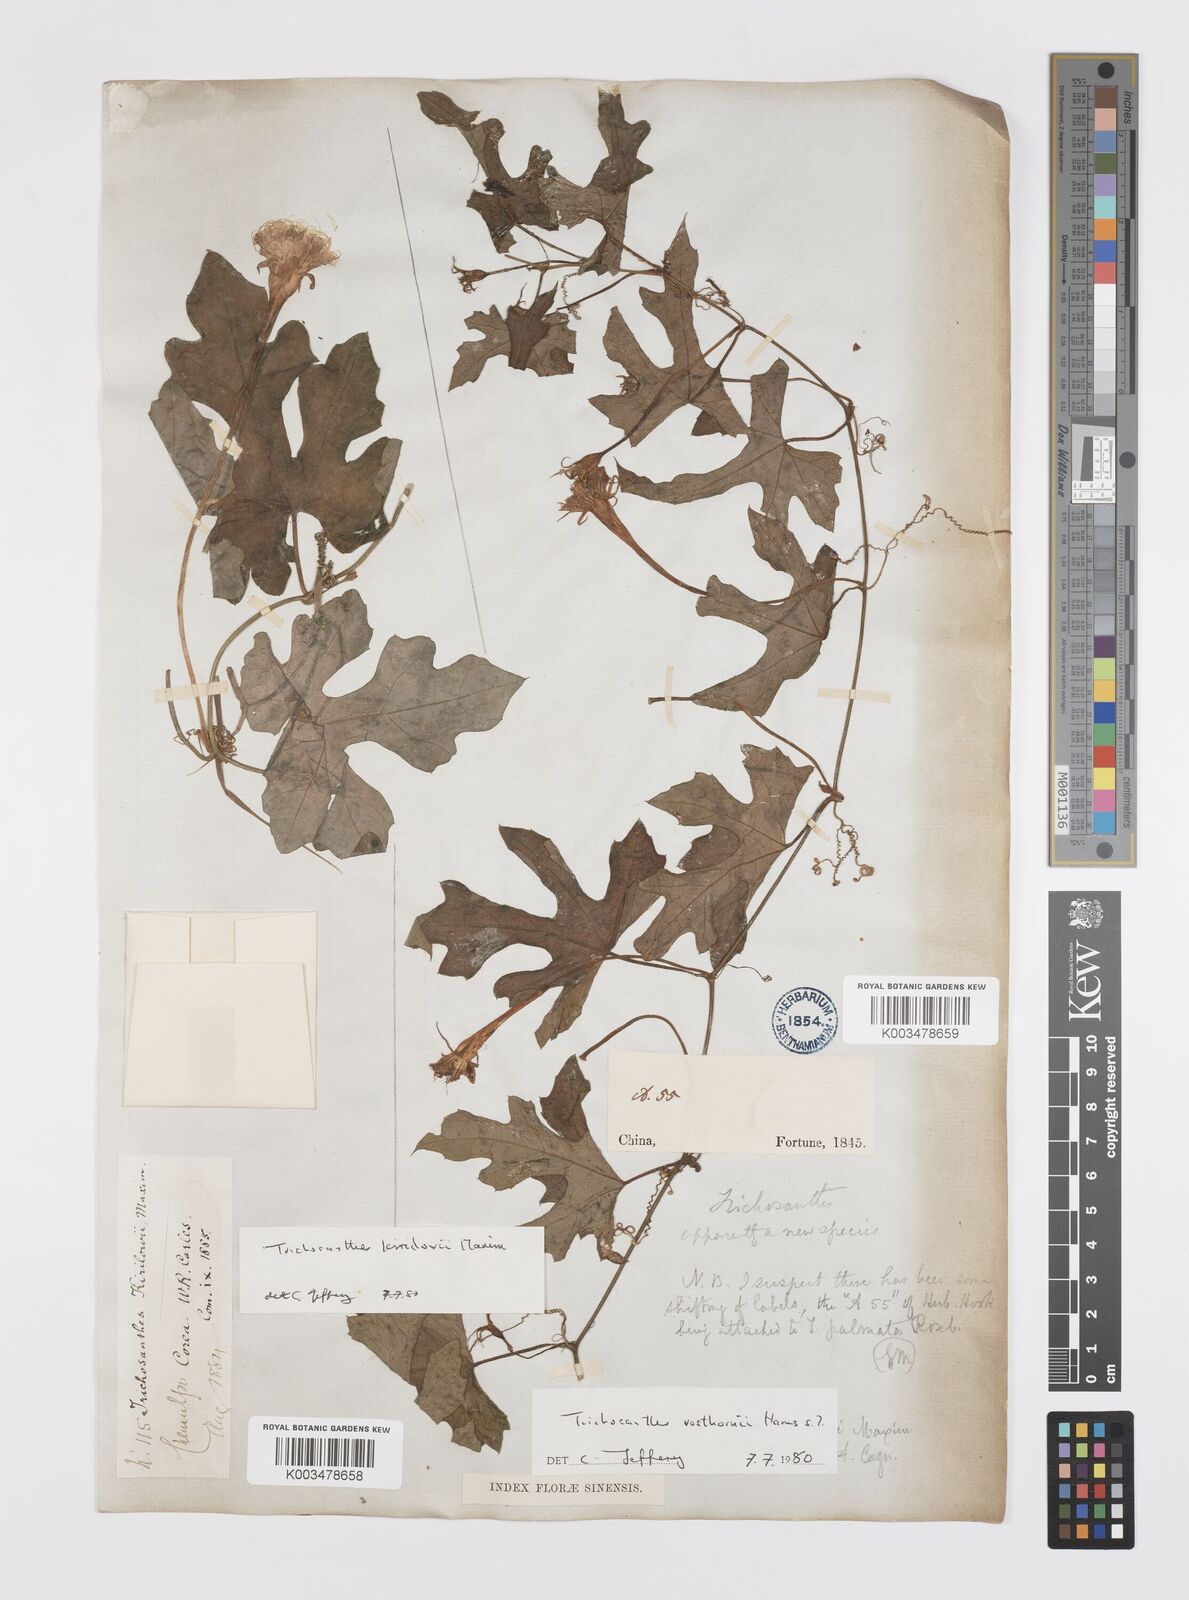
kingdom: Plantae
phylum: Tracheophyta
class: Magnoliopsida
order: Cucurbitales
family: Cucurbitaceae
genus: Trichosanthes
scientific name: Trichosanthes kirilowii
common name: Chinese-cucumber
